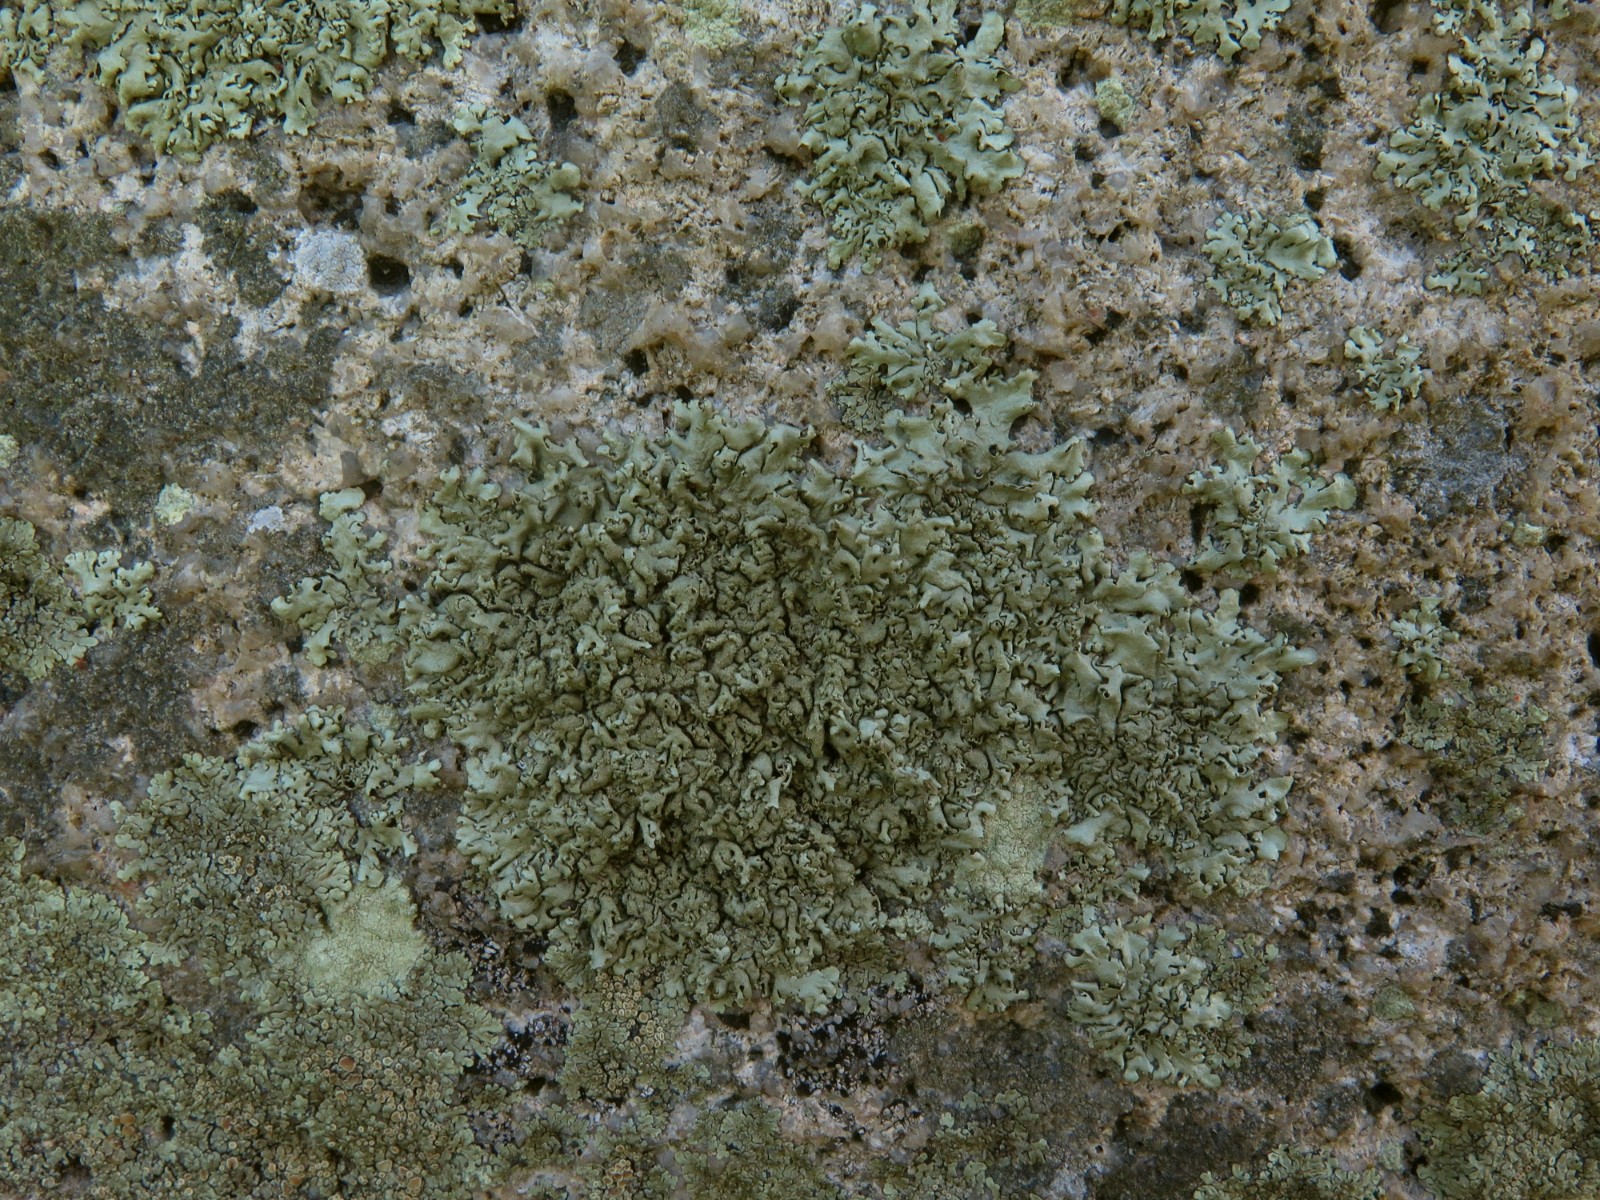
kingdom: Fungi
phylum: Ascomycota
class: Lecanoromycetes
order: Lecanorales
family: Parmeliaceae
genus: Xanthoparmelia
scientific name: Xanthoparmelia conspersa
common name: messing-skållav
